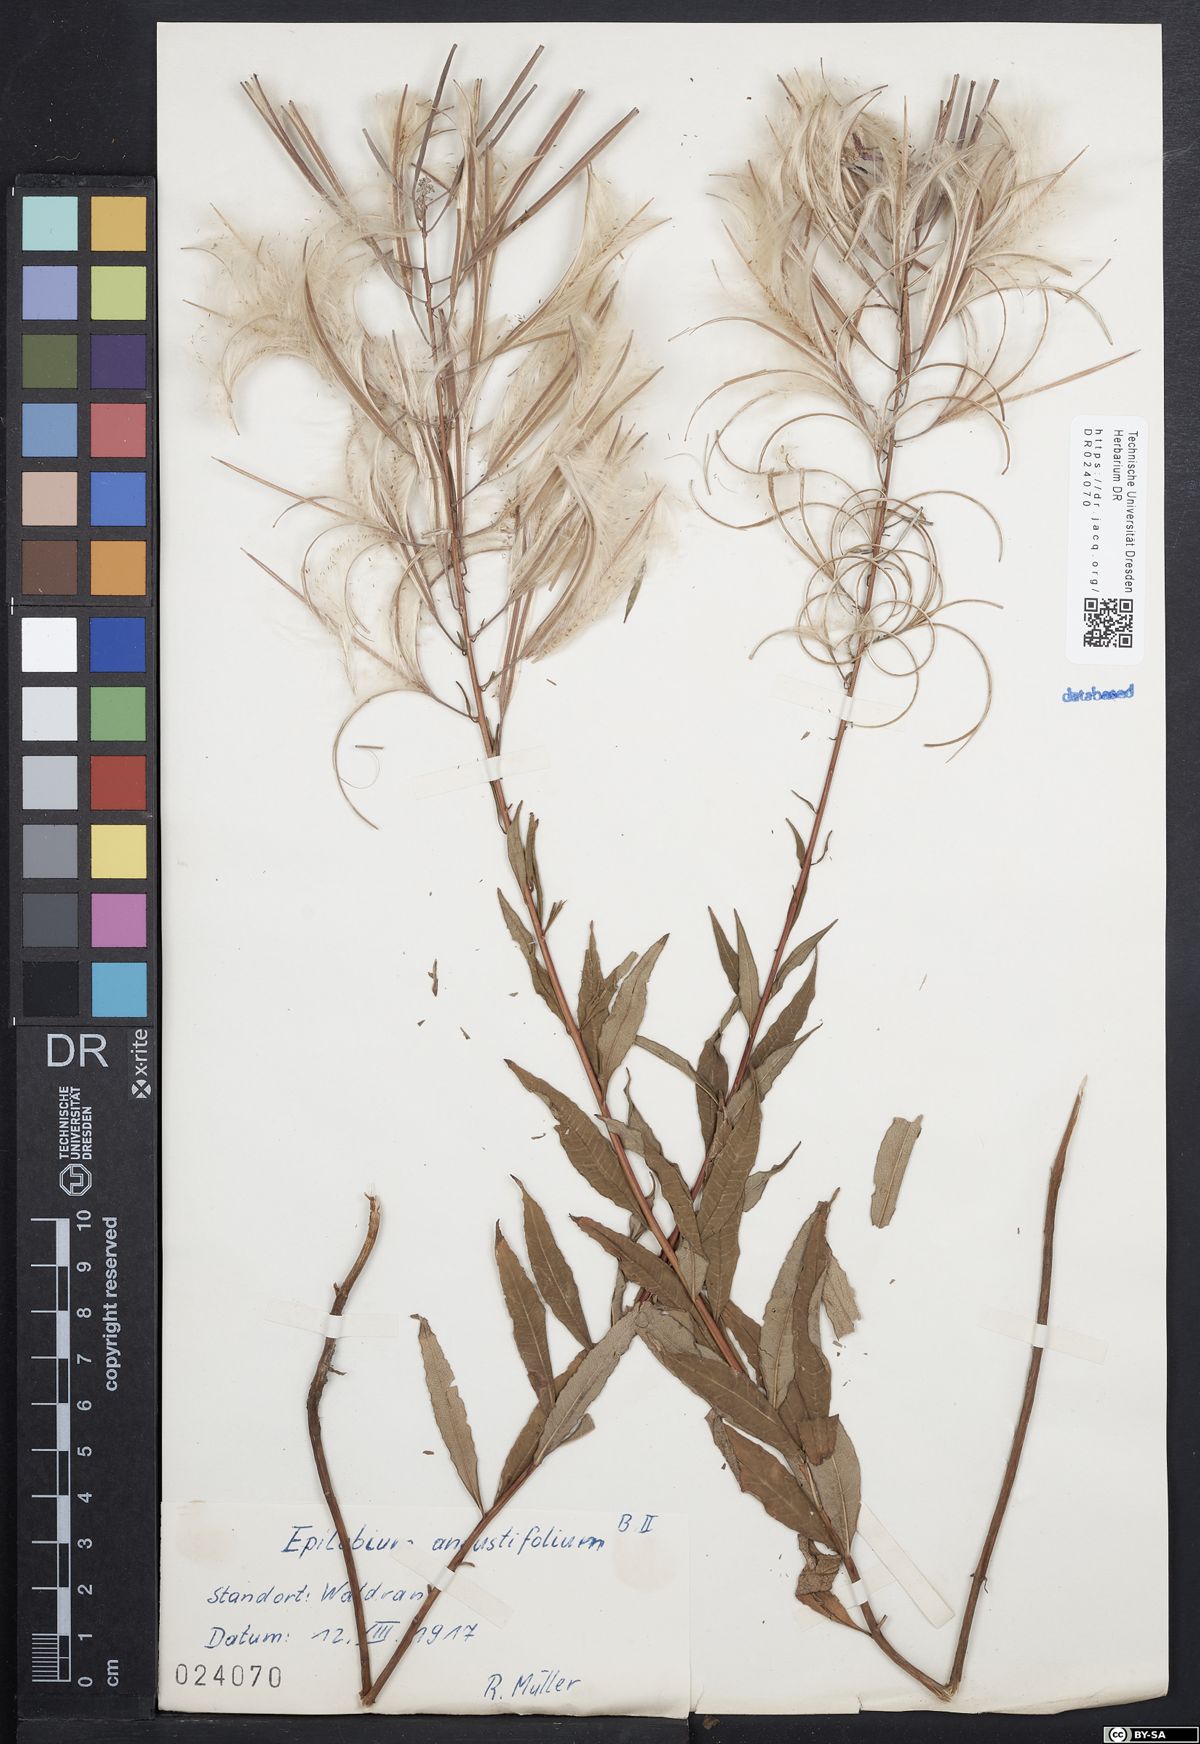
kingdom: Plantae
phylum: Tracheophyta
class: Magnoliopsida
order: Myrtales
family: Onagraceae
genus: Chamaenerion
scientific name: Chamaenerion angustifolium
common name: Fireweed
